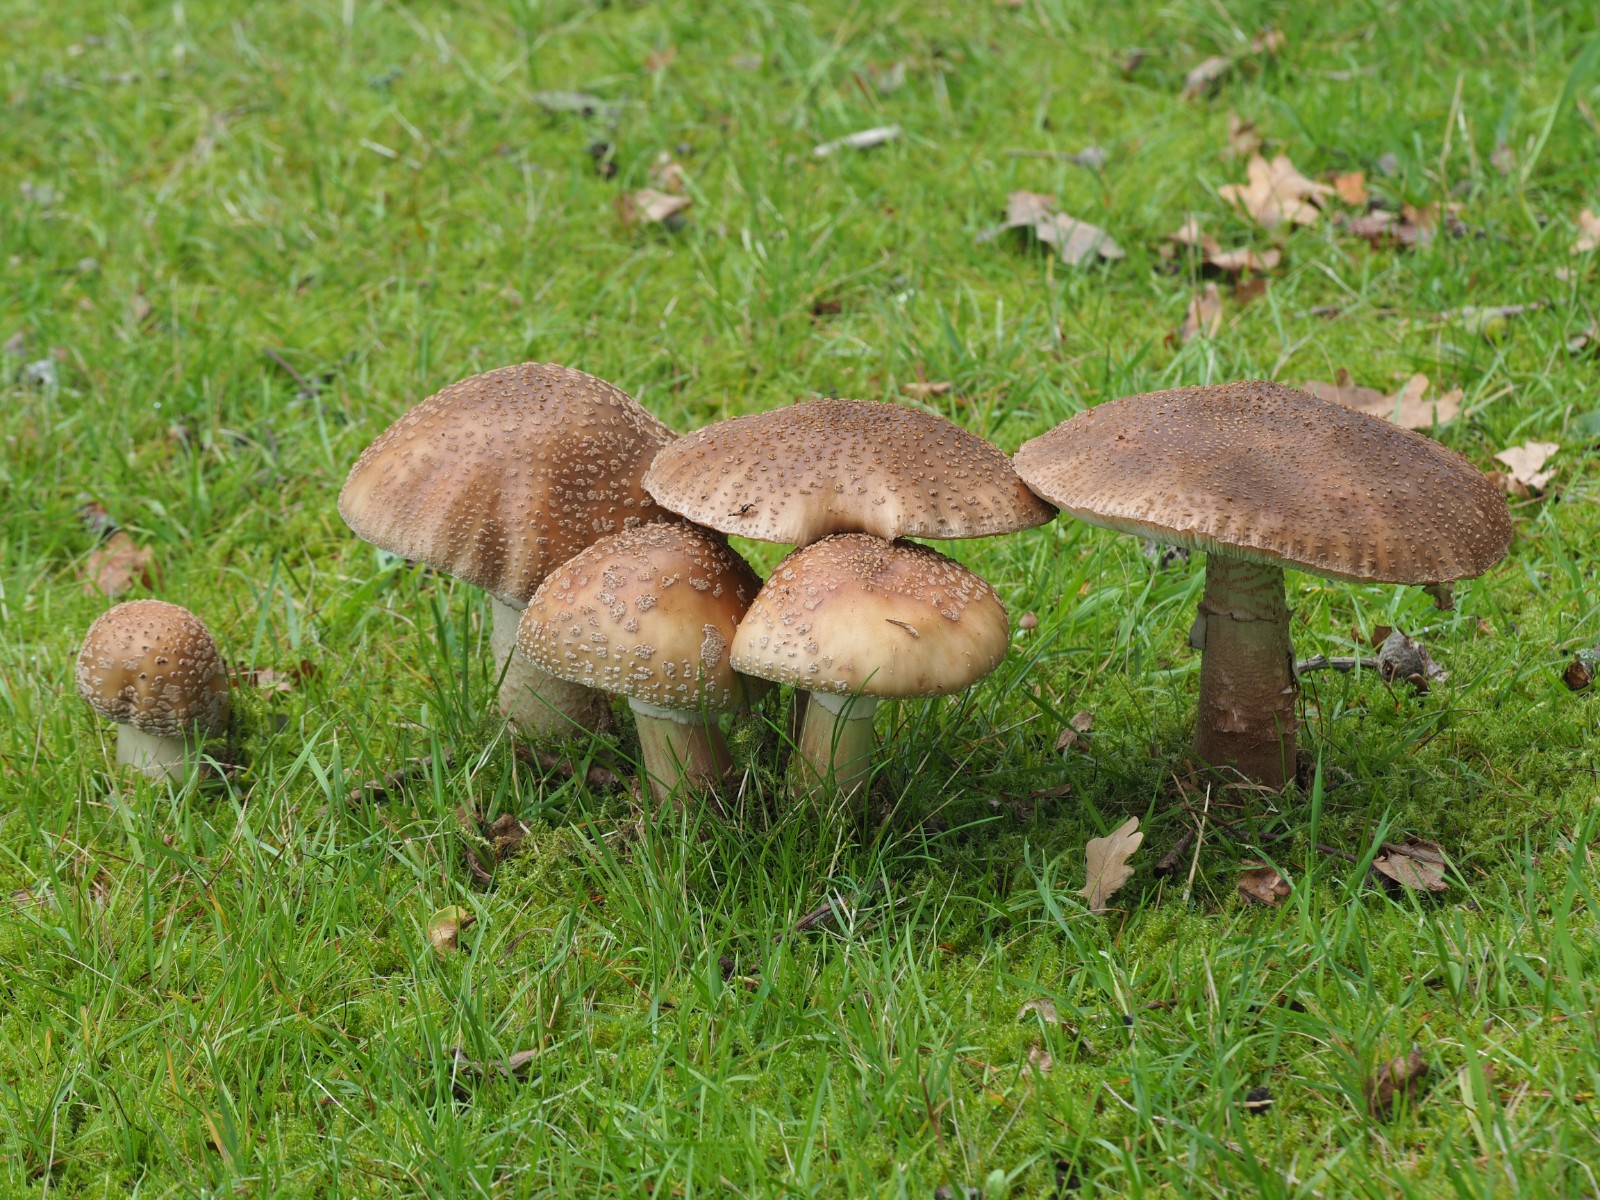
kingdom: Fungi
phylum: Basidiomycota
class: Agaricomycetes
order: Agaricales
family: Amanitaceae
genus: Amanita
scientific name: Amanita rubescens
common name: rødmende fluesvamp
